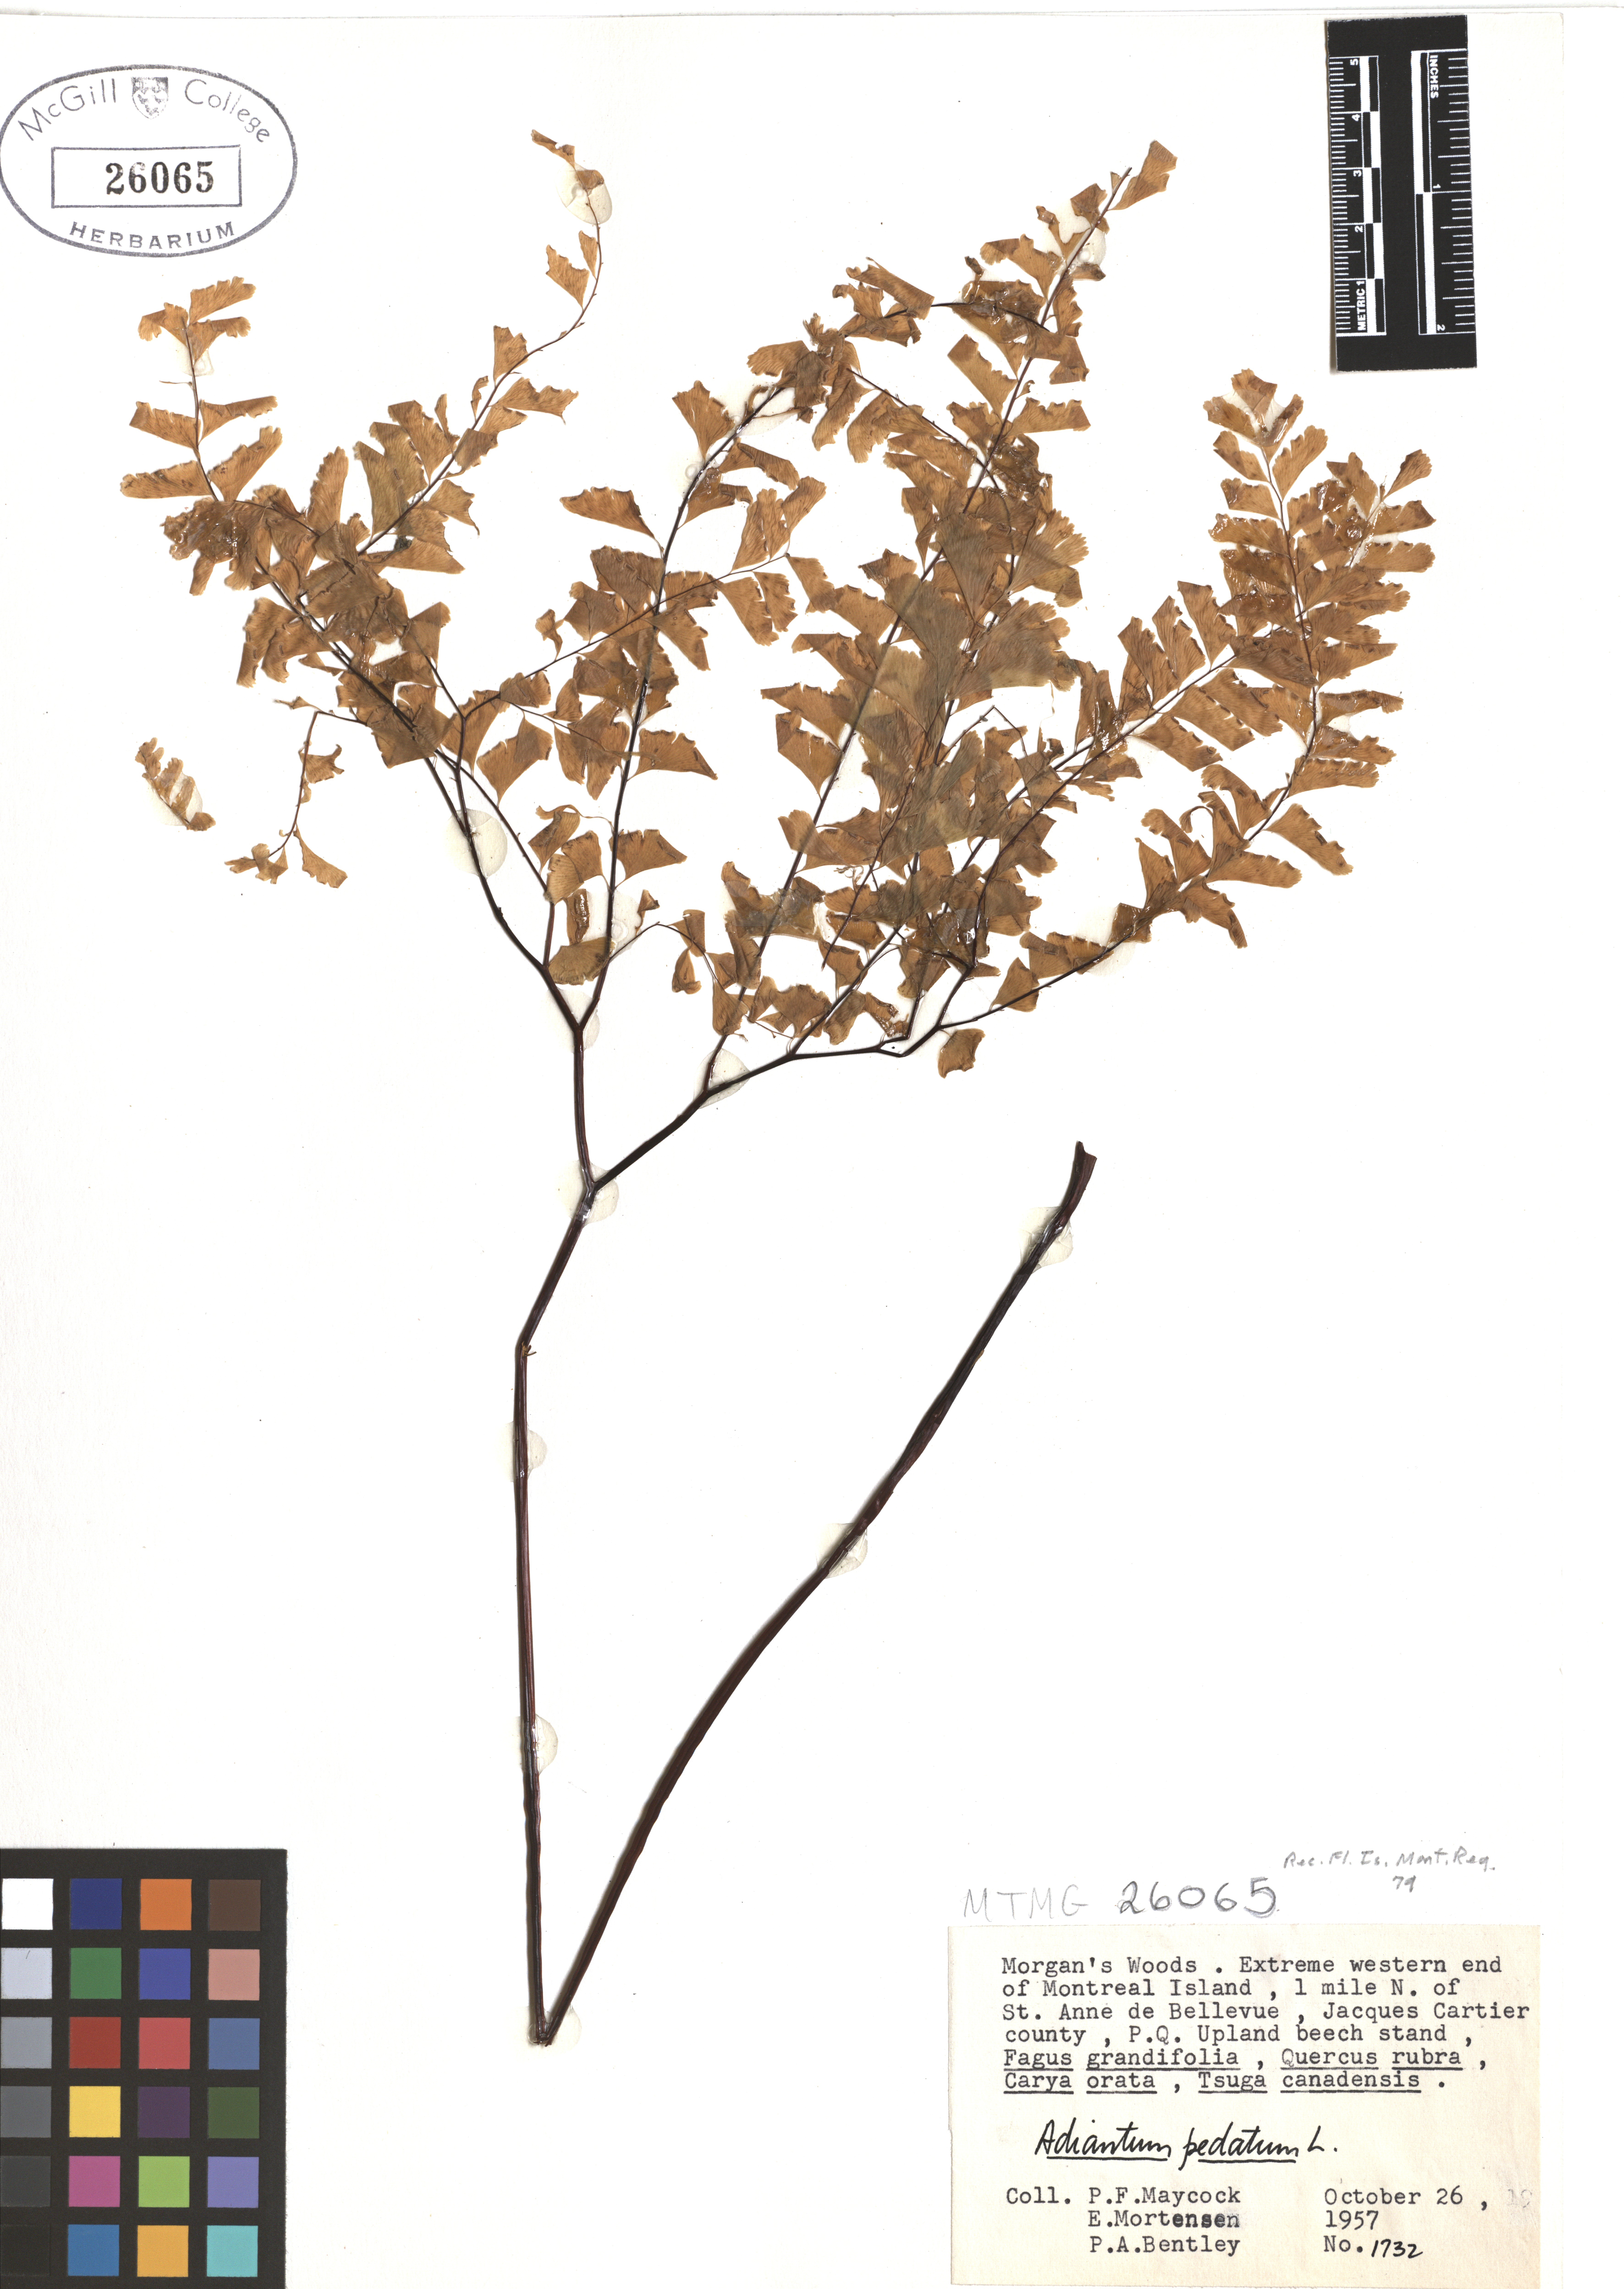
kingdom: Plantae
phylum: Tracheophyta
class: Polypodiopsida
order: Polypodiales
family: Pteridaceae
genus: Adiantum
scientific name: Adiantum pedatum
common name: Five-finger fern
